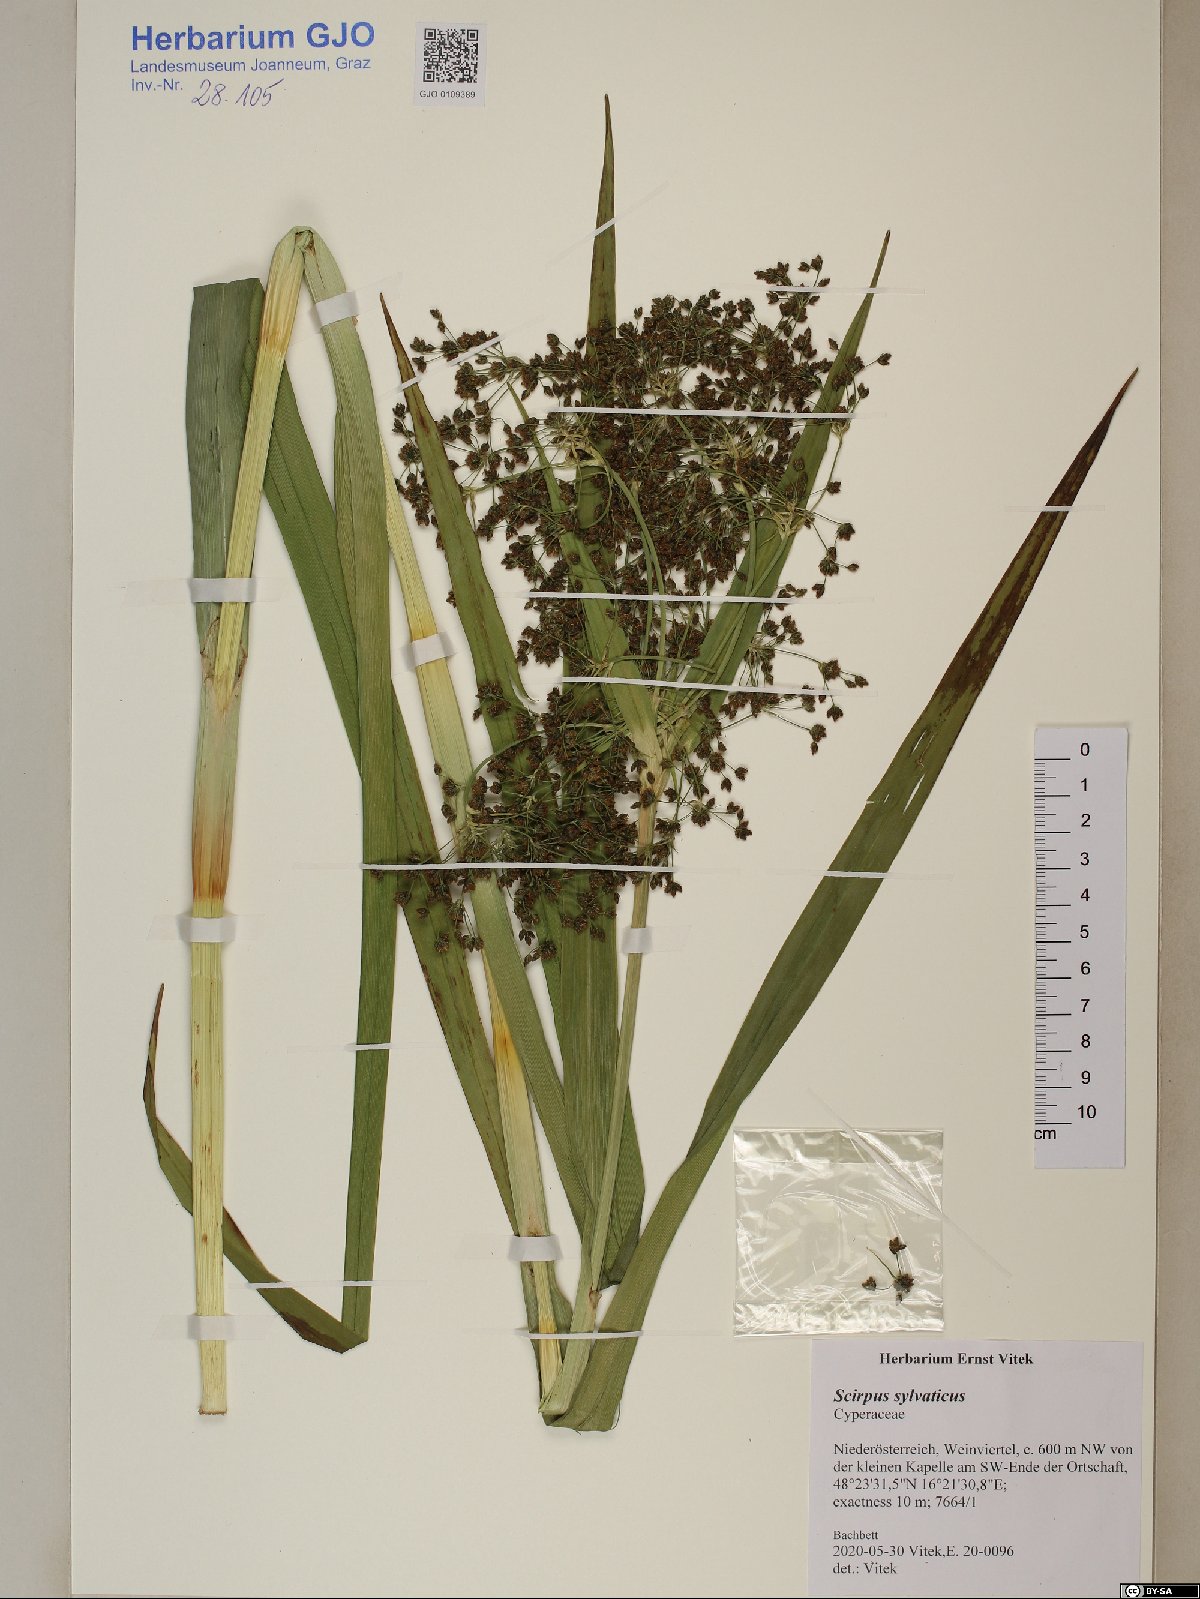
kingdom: Plantae
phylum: Tracheophyta
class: Liliopsida
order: Poales
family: Cyperaceae
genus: Scirpus
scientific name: Scirpus sylvaticus
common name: Wood club-rush
